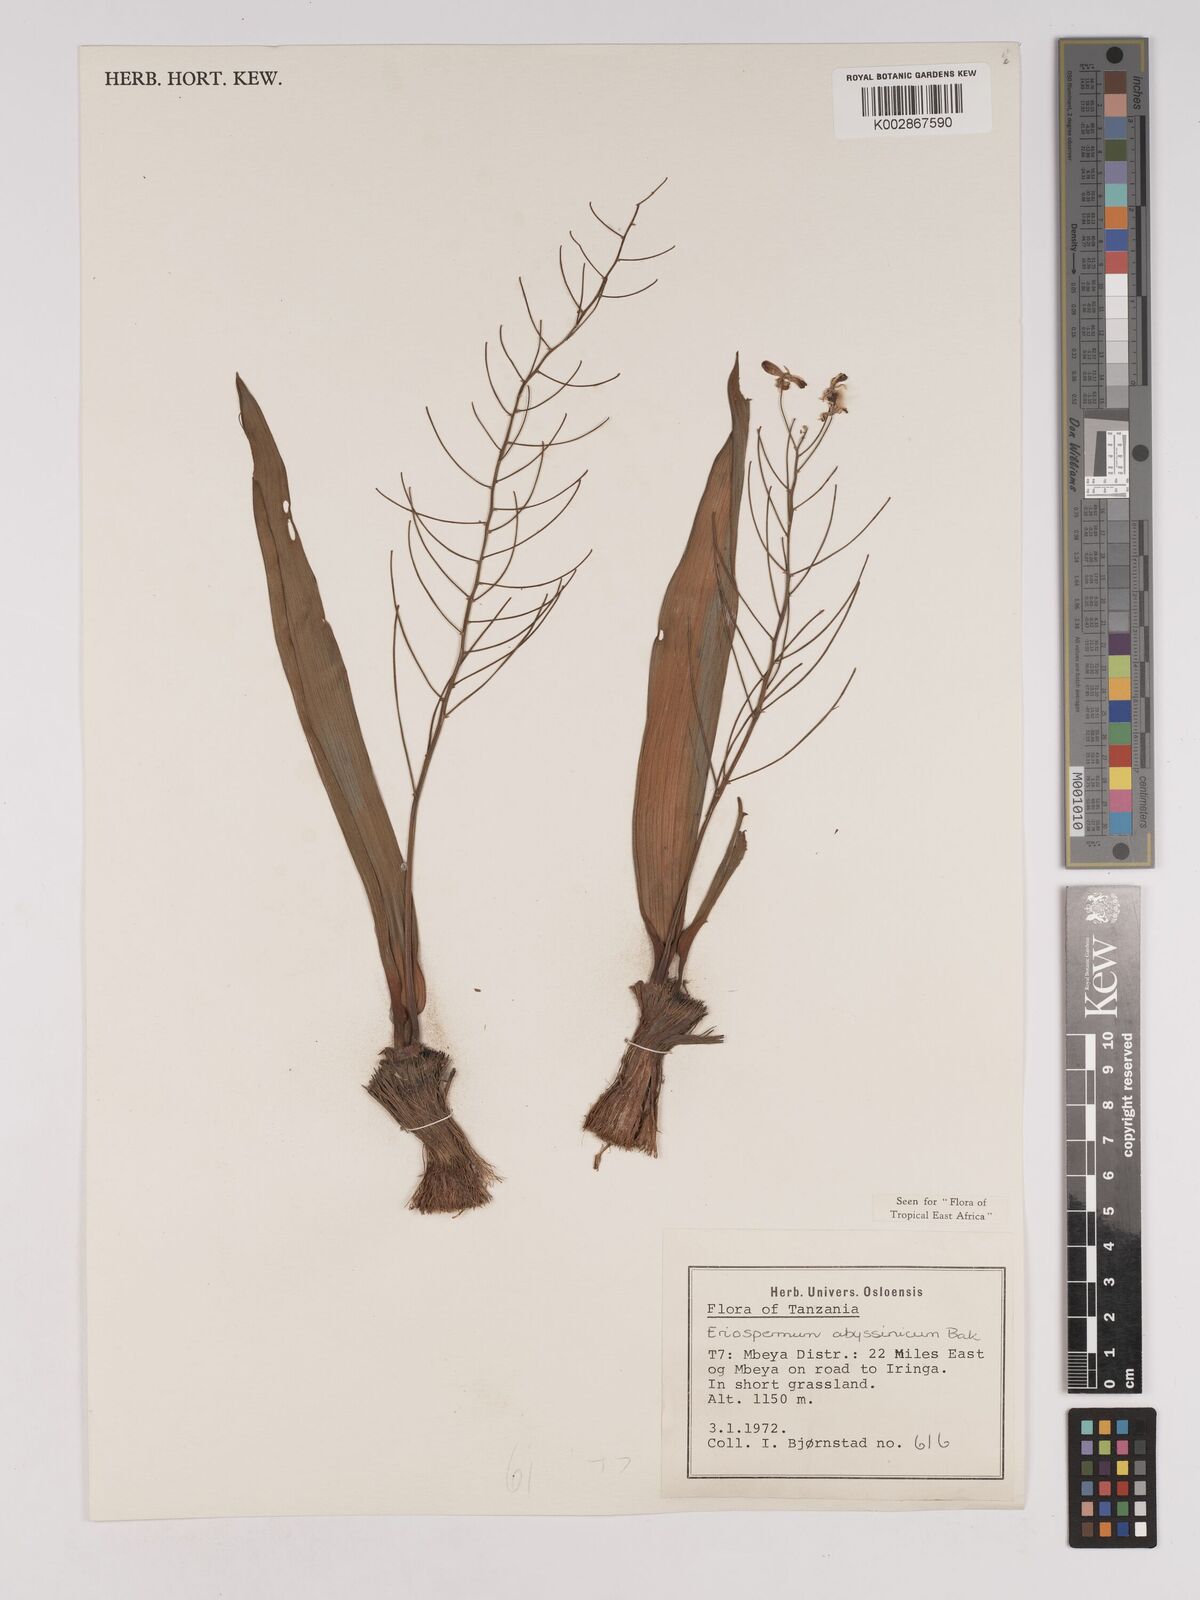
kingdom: Plantae
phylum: Tracheophyta
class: Liliopsida
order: Asparagales
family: Asparagaceae
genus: Eriospermum
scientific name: Eriospermum abyssinicum
